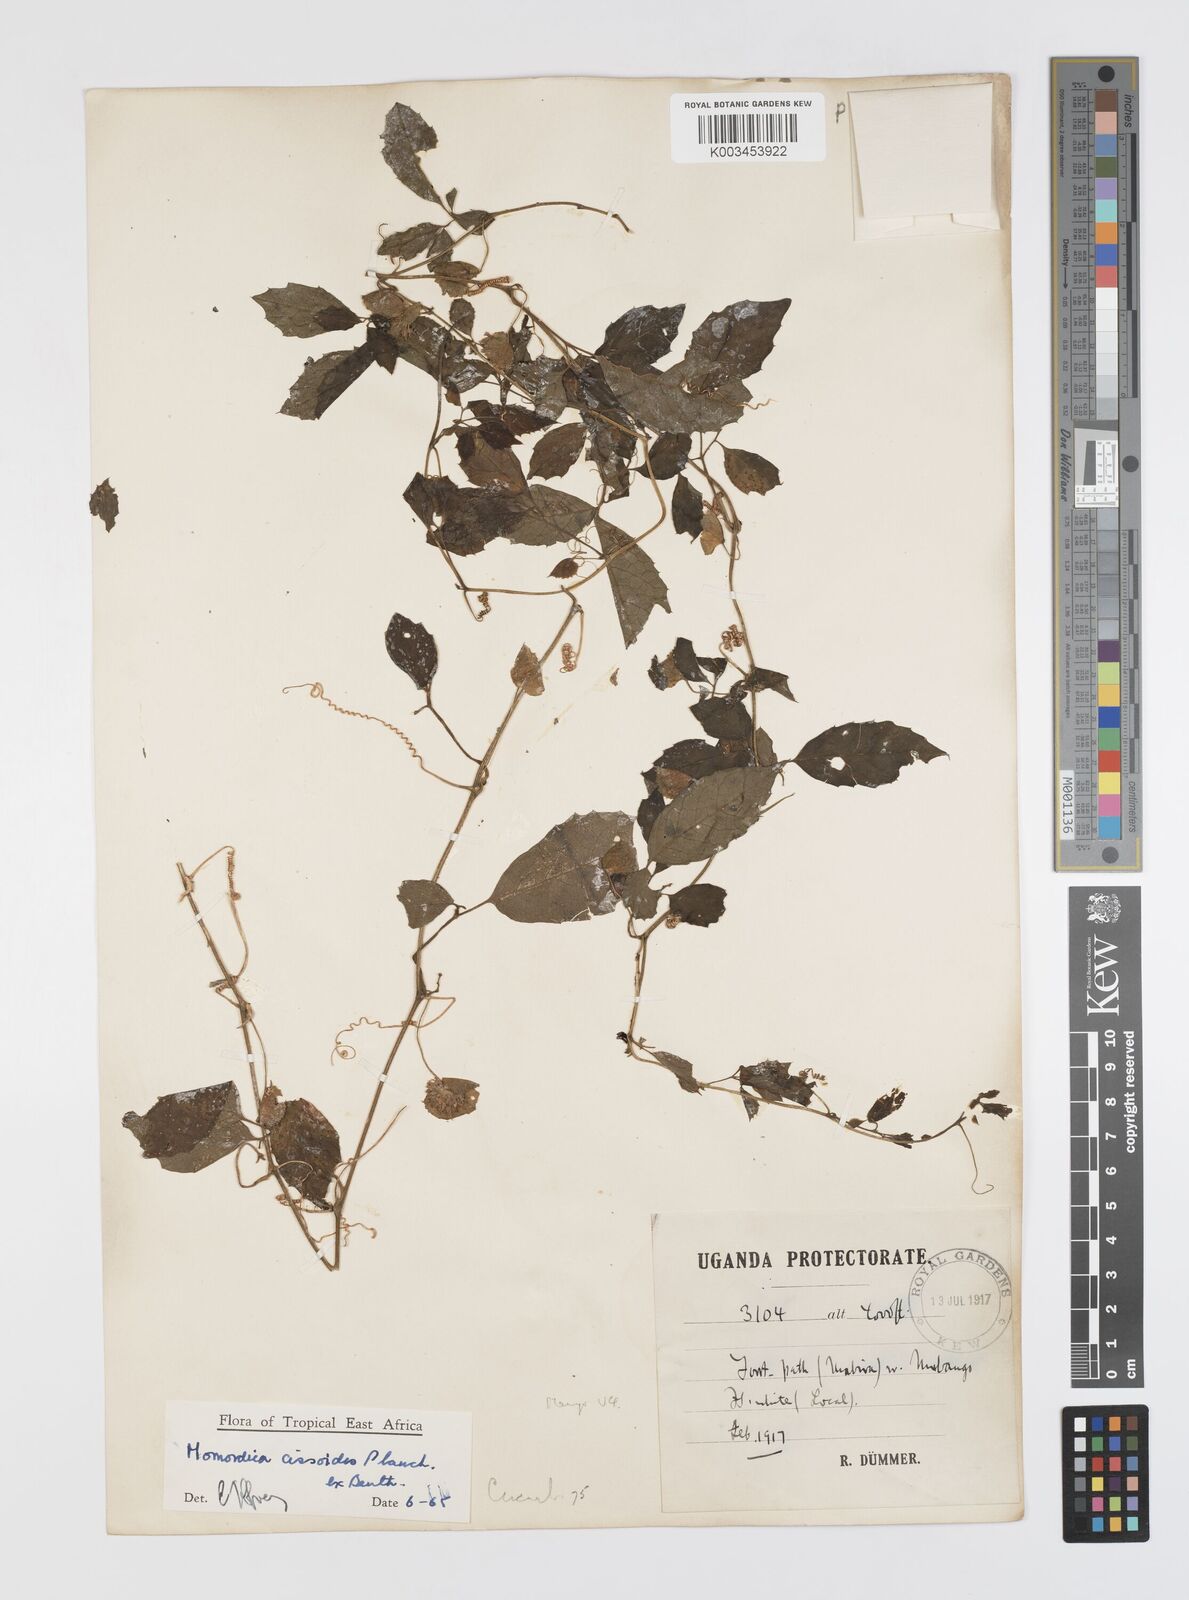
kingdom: Plantae
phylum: Tracheophyta
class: Magnoliopsida
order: Cucurbitales
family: Cucurbitaceae
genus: Momordica
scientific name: Momordica cissoides
